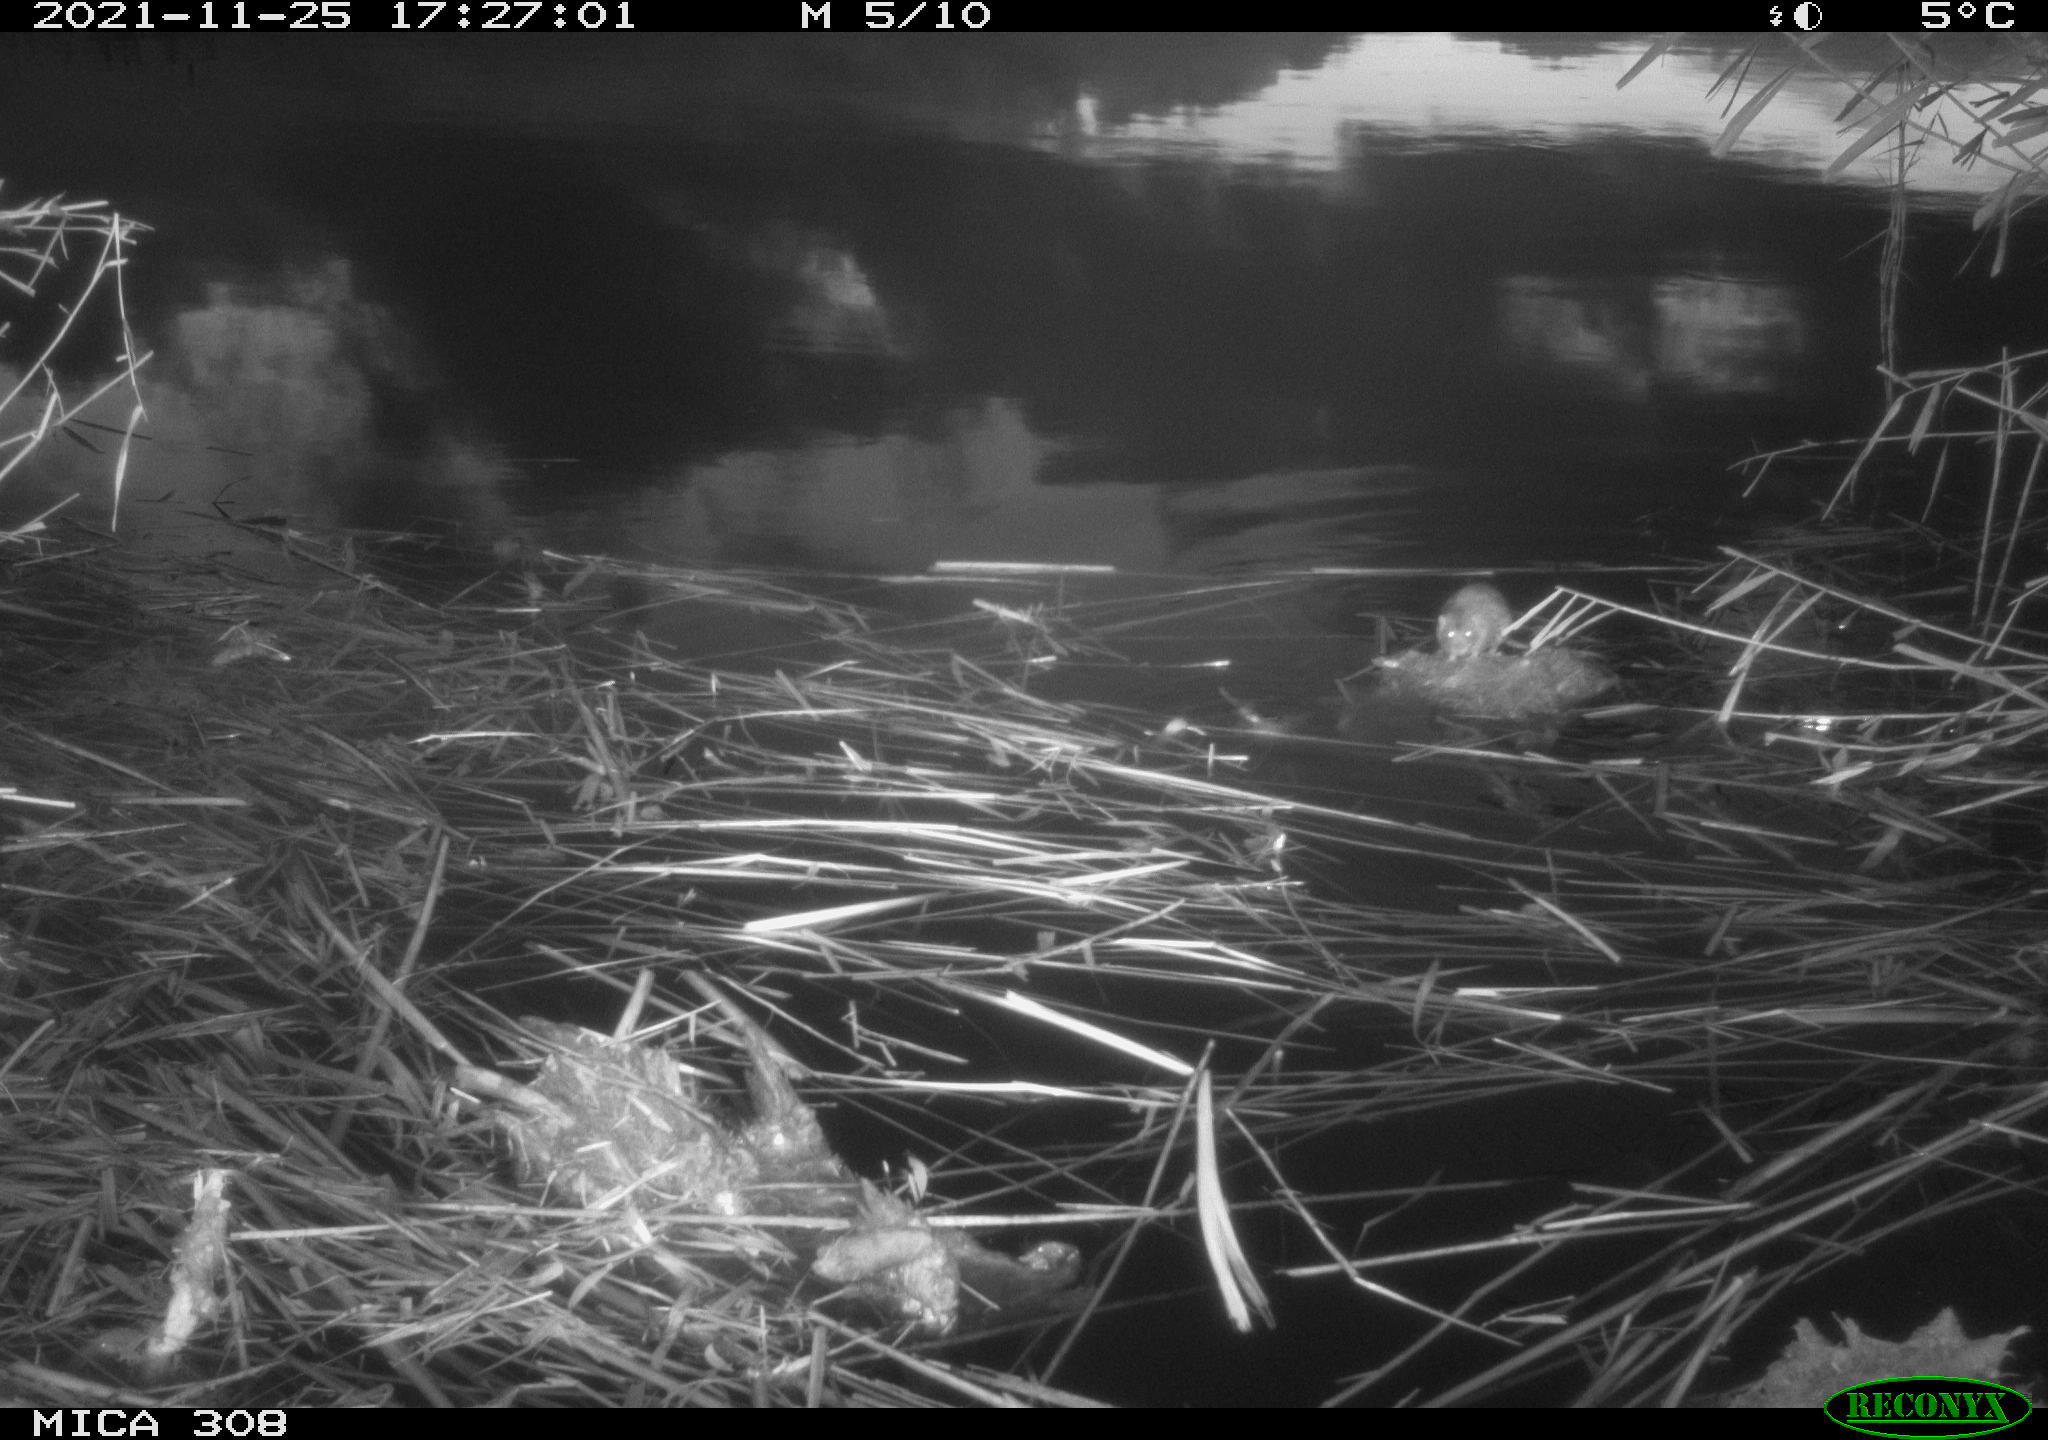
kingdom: Animalia
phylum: Chordata
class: Mammalia
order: Rodentia
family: Muridae
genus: Rattus
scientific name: Rattus norvegicus
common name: Brown rat
